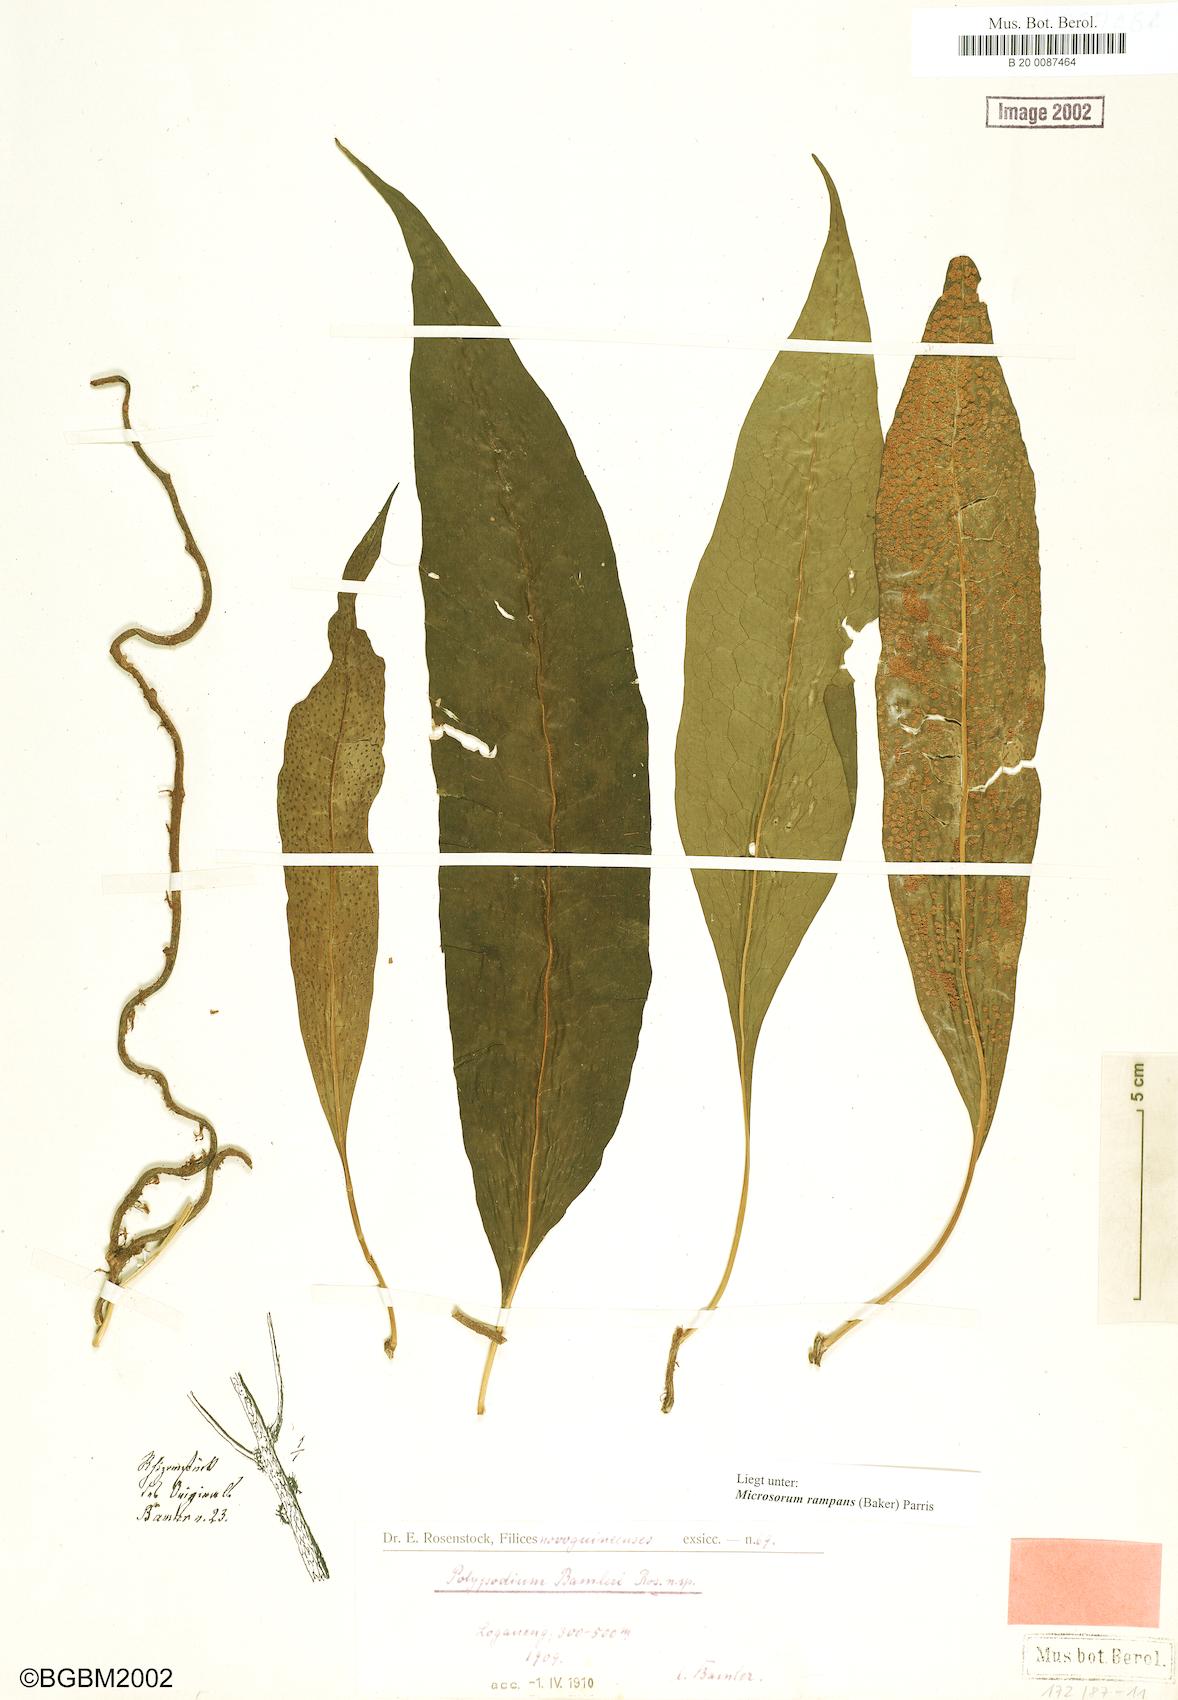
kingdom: Plantae
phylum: Tracheophyta
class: Polypodiopsida
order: Polypodiales
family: Polypodiaceae
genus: Microsorum
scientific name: Microsorum rampans
